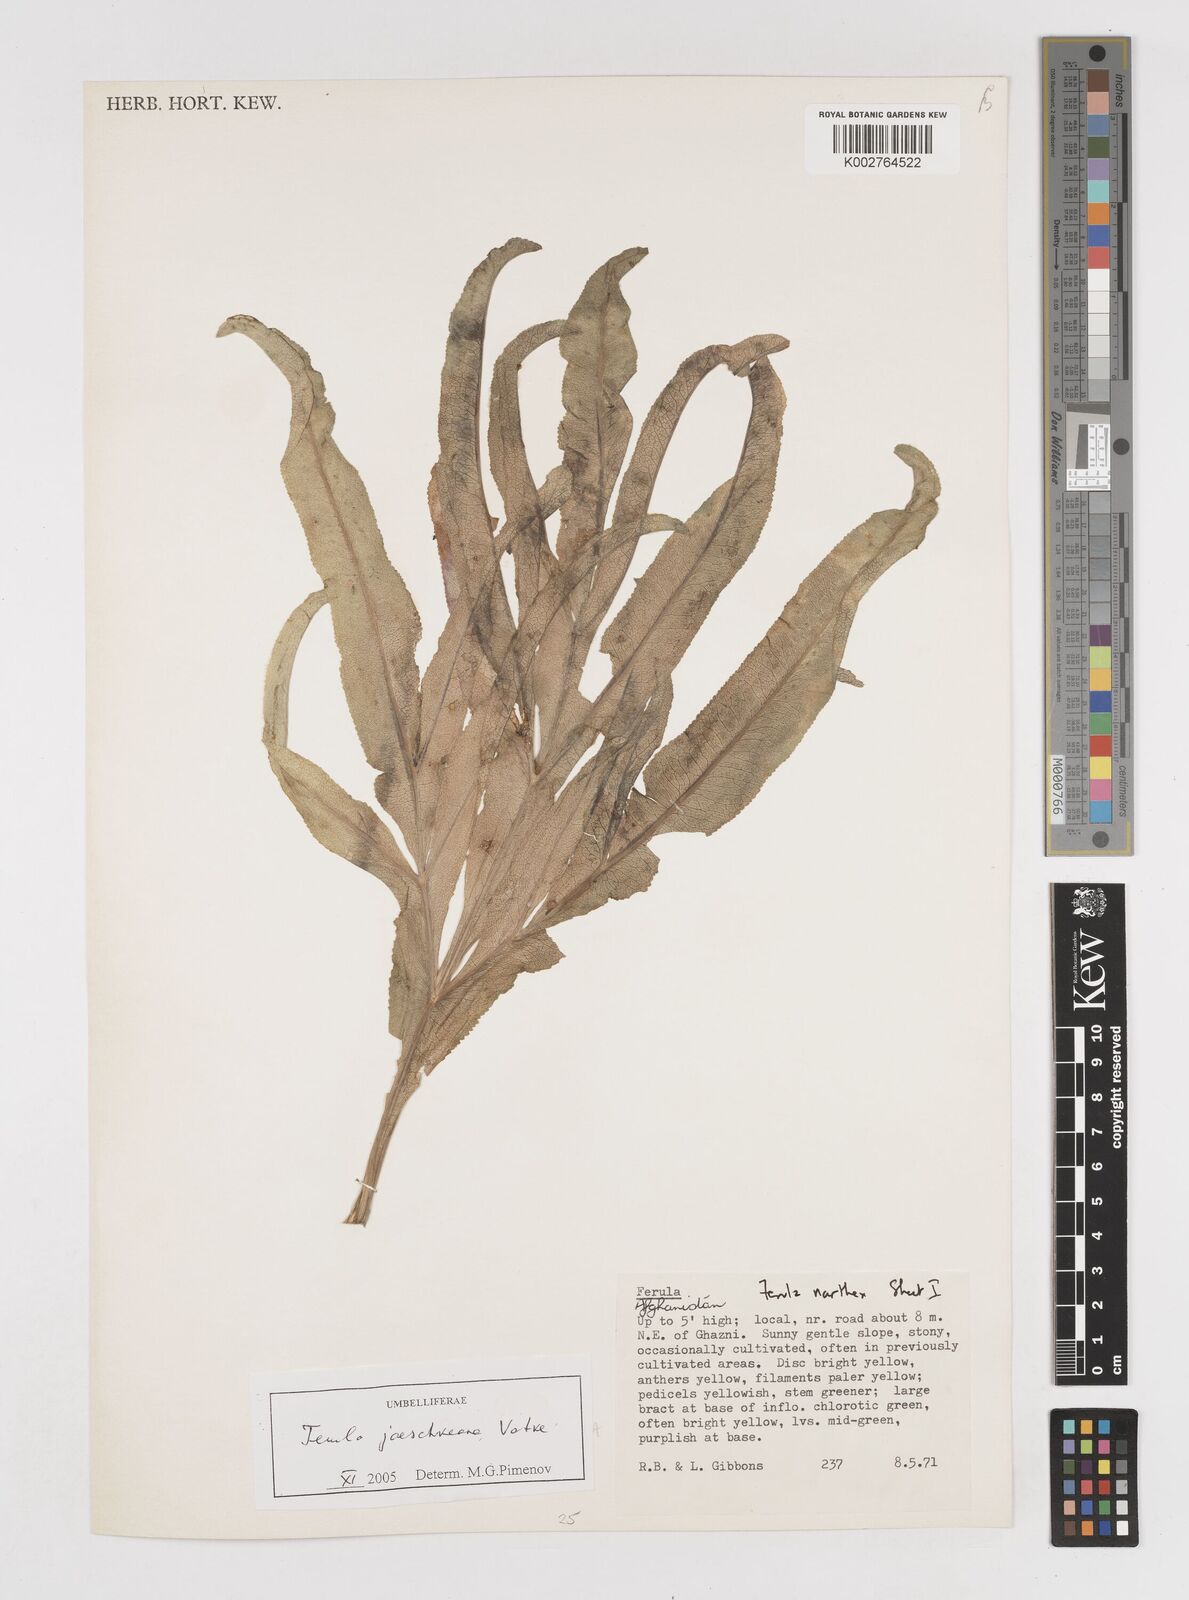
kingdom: Plantae
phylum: Tracheophyta
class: Magnoliopsida
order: Apiales
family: Apiaceae
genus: Ferula
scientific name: Ferula jaeschkeana
